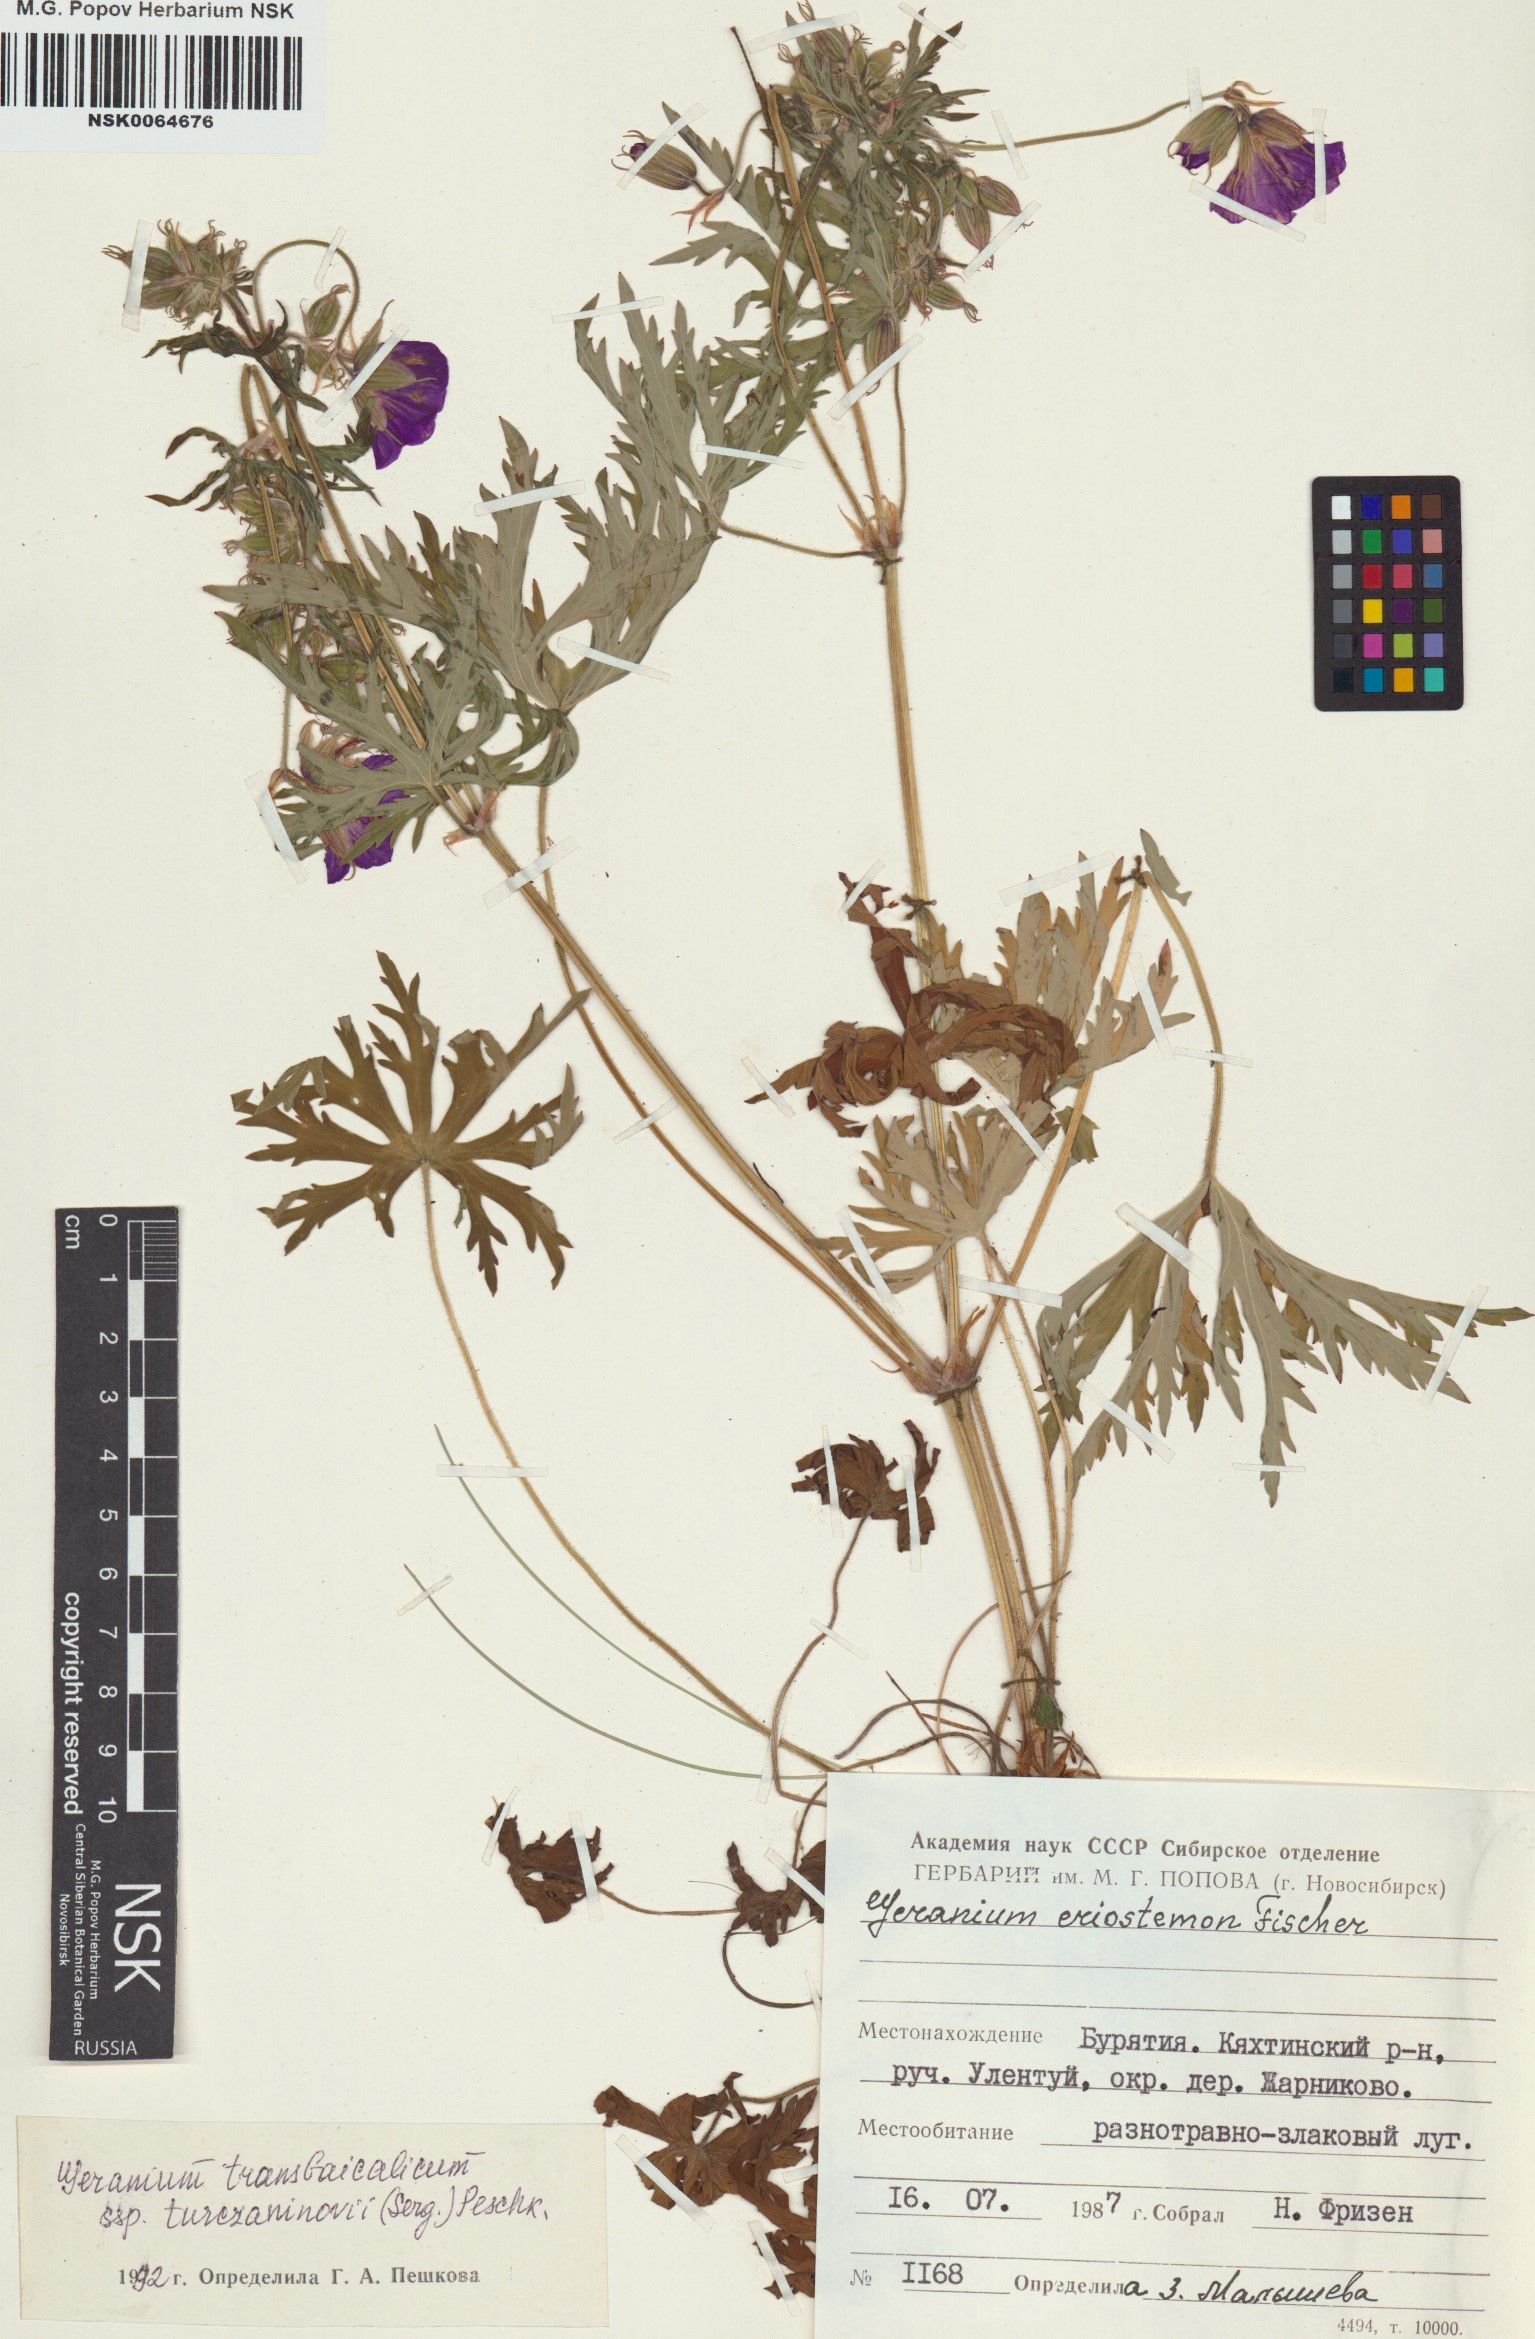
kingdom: Plantae
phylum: Tracheophyta
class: Magnoliopsida
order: Geraniales
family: Geraniaceae
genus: Geranium
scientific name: Geranium pratense
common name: Meadow crane's-bill
